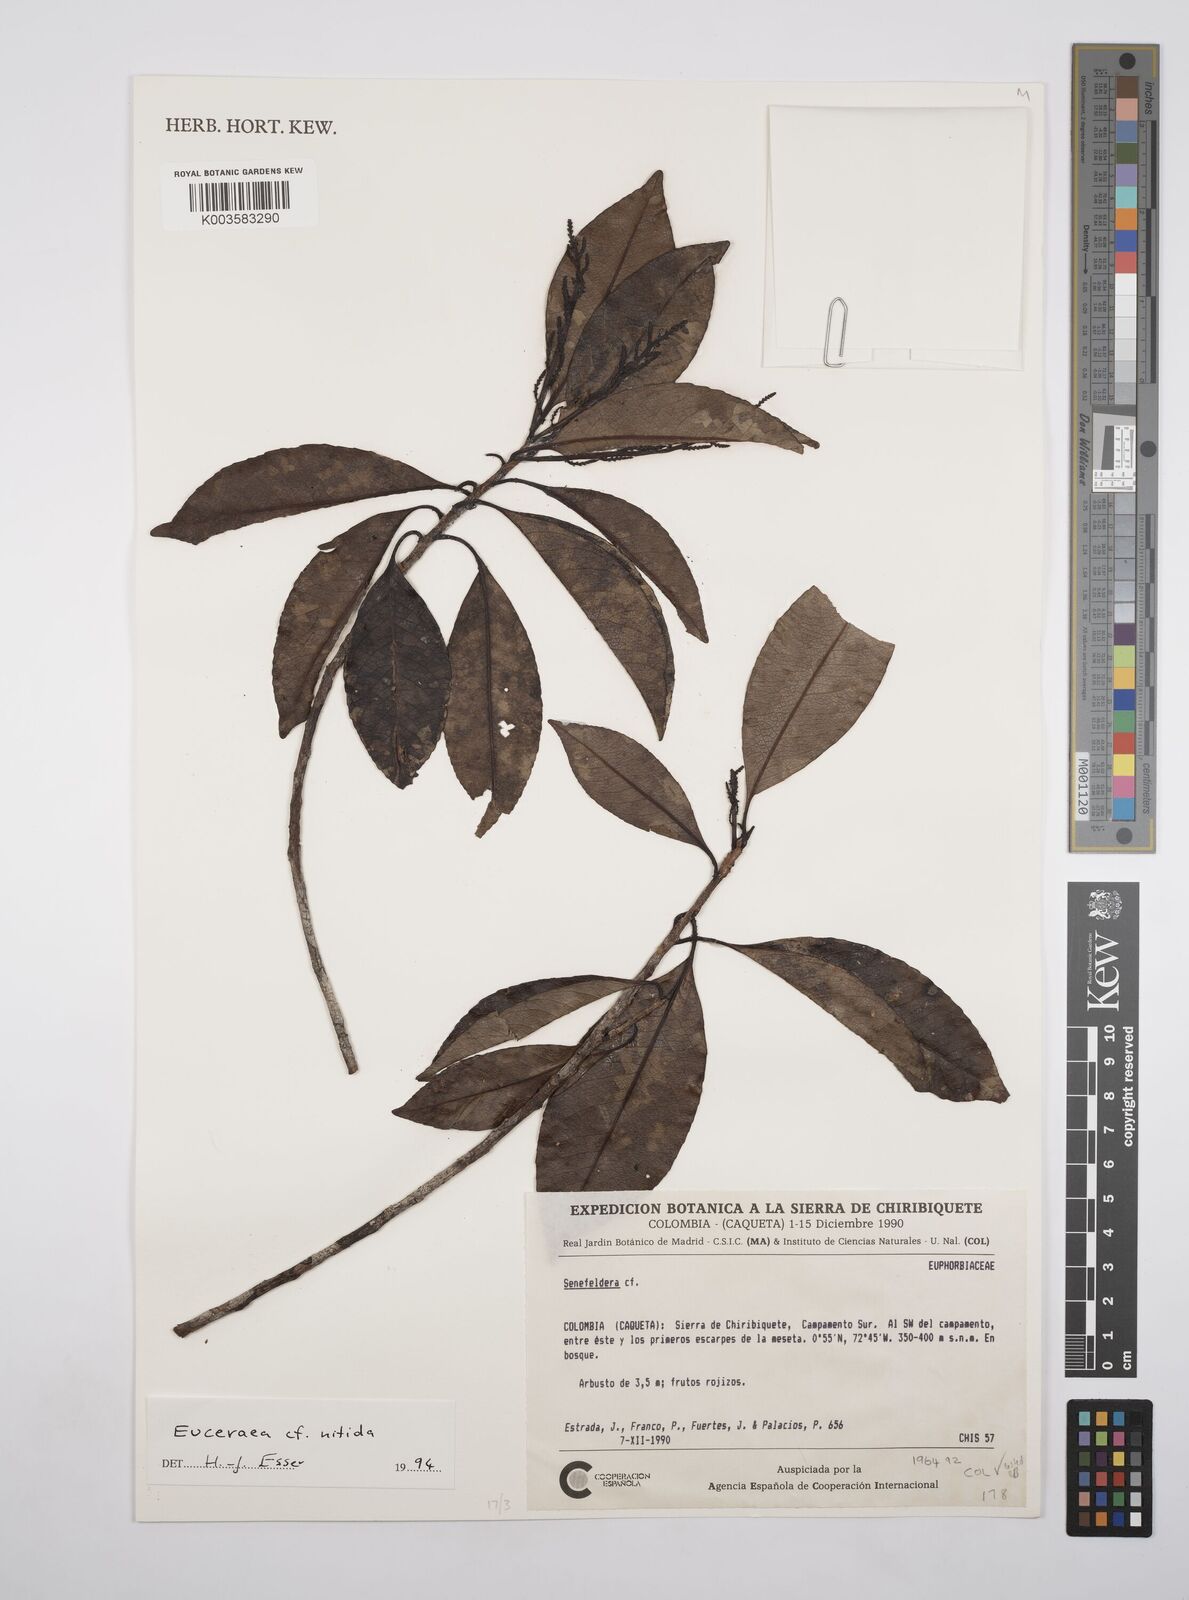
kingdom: Plantae
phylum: Tracheophyta
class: Magnoliopsida
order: Malpighiales
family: Salicaceae
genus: Casearia
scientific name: Casearia euceraea
